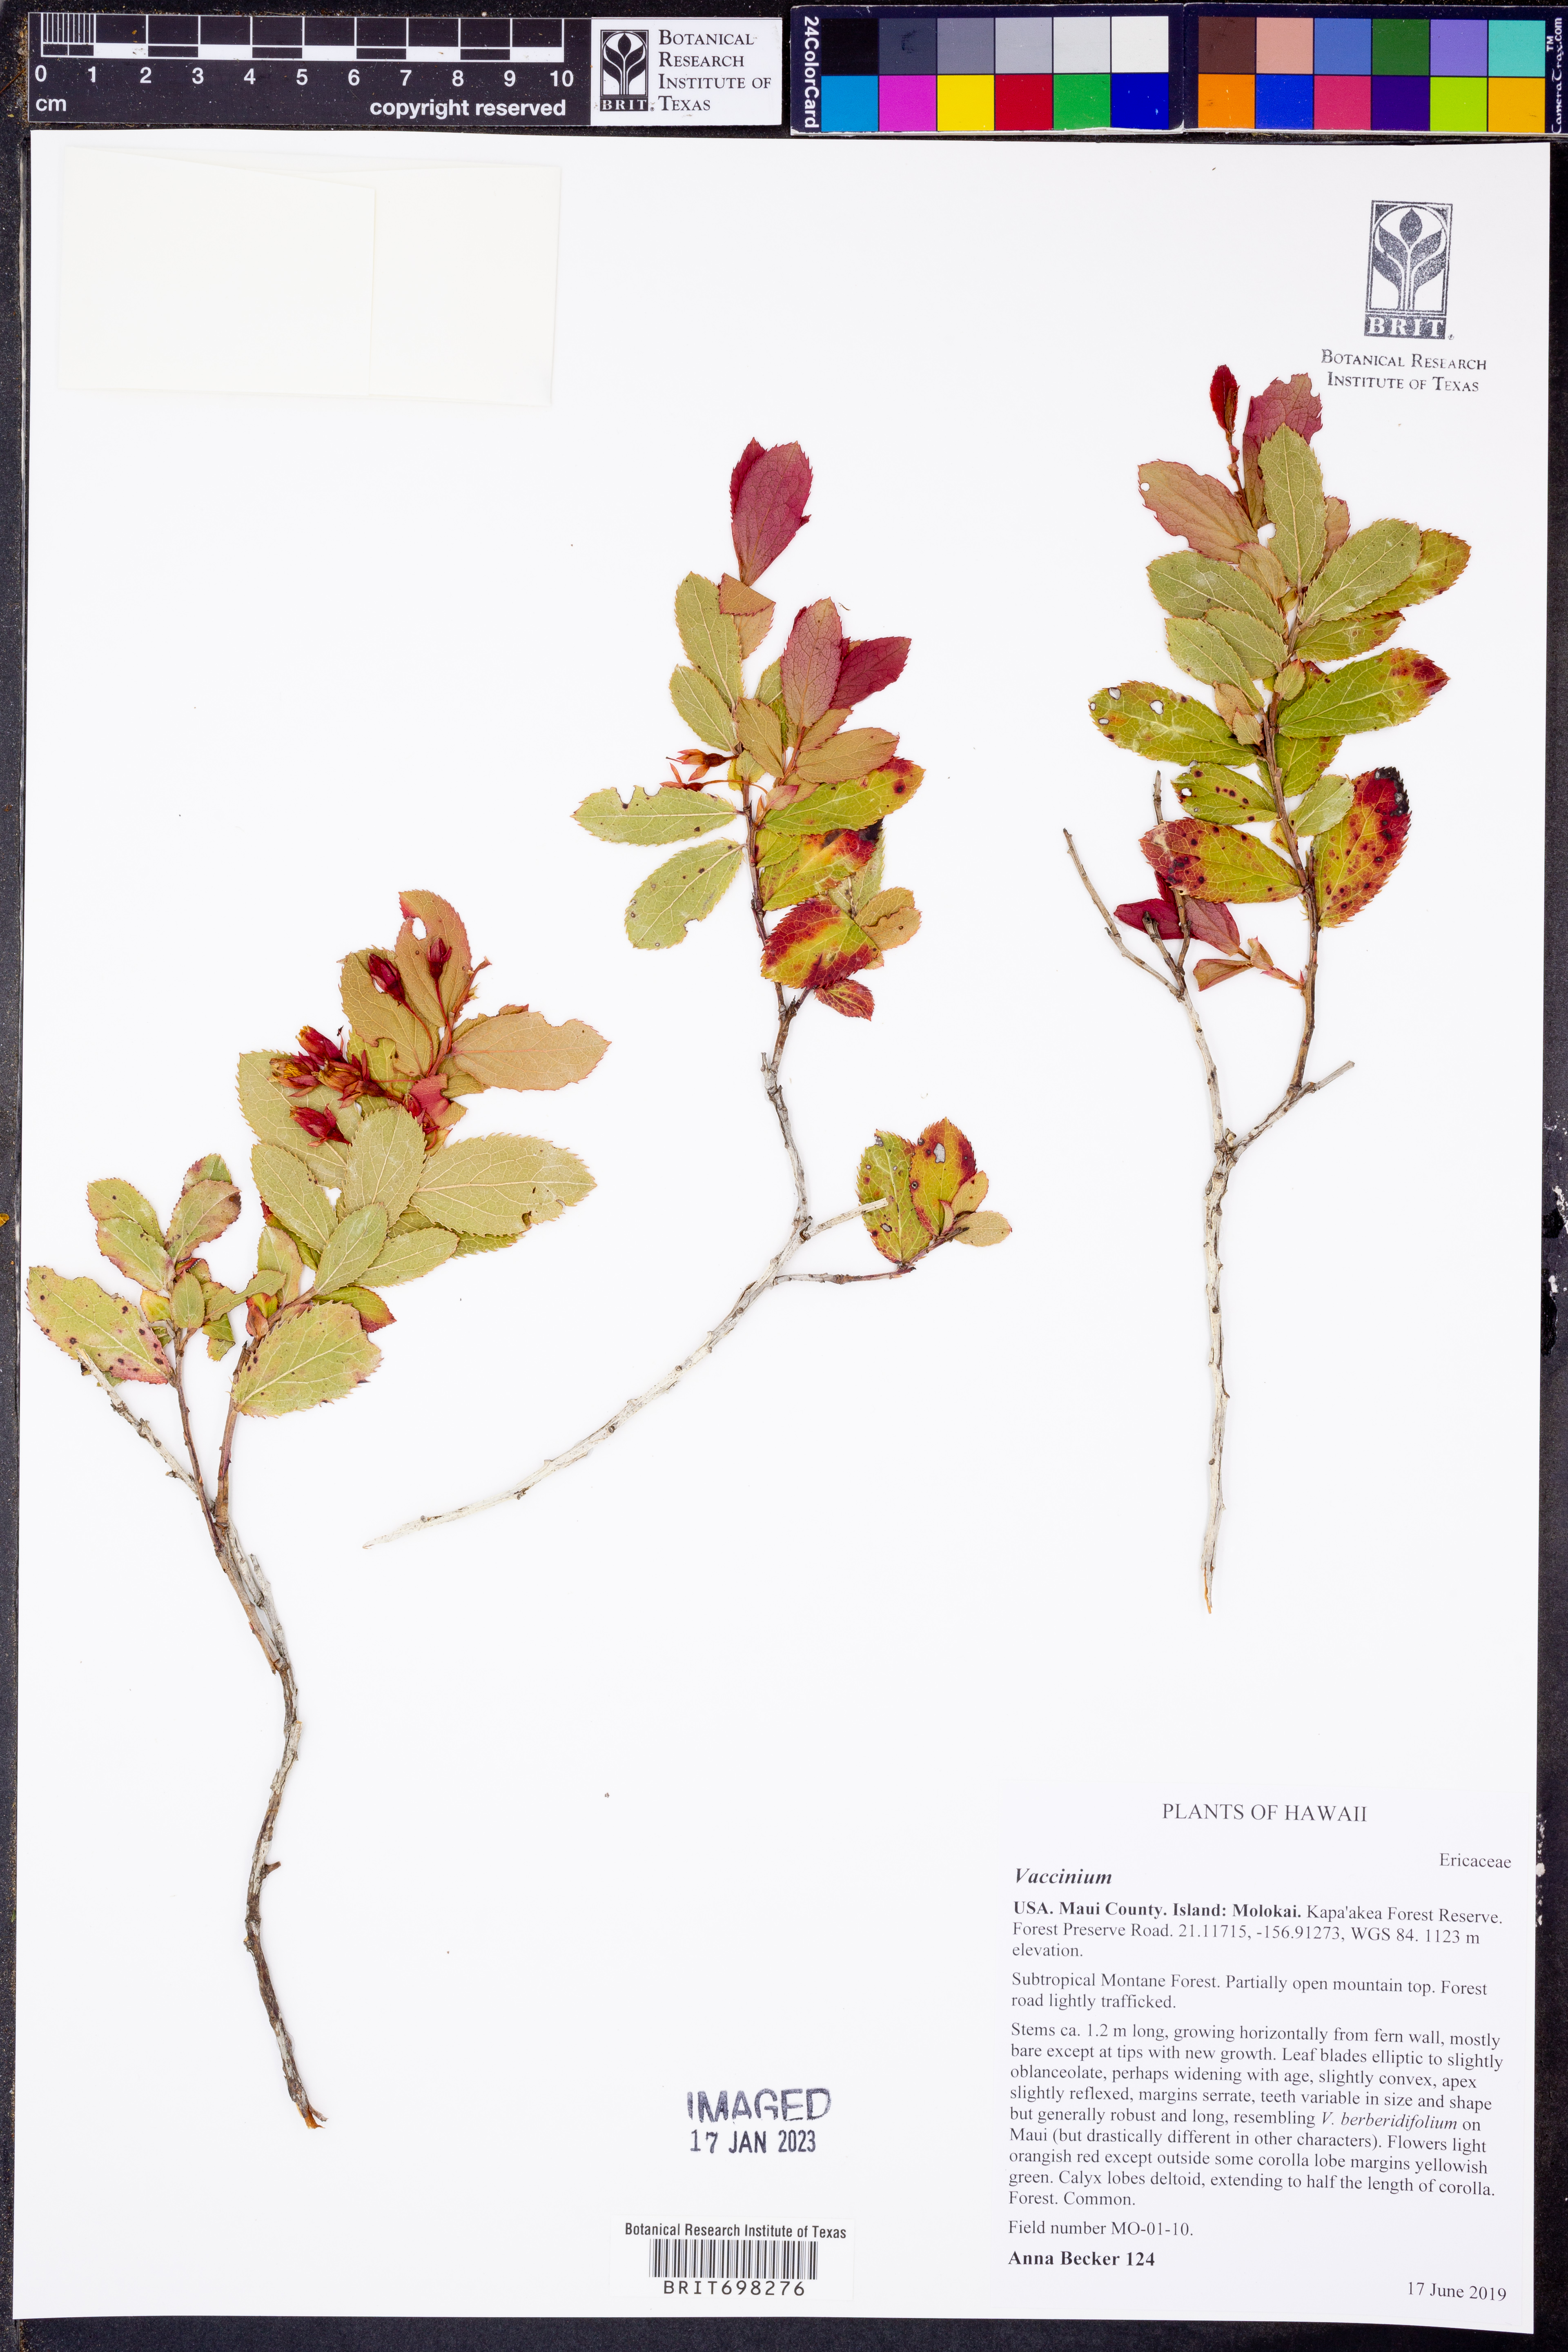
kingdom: Plantae
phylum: Tracheophyta
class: Magnoliopsida
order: Ericales
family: Ericaceae
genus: Vaccinium
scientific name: Vaccinium
